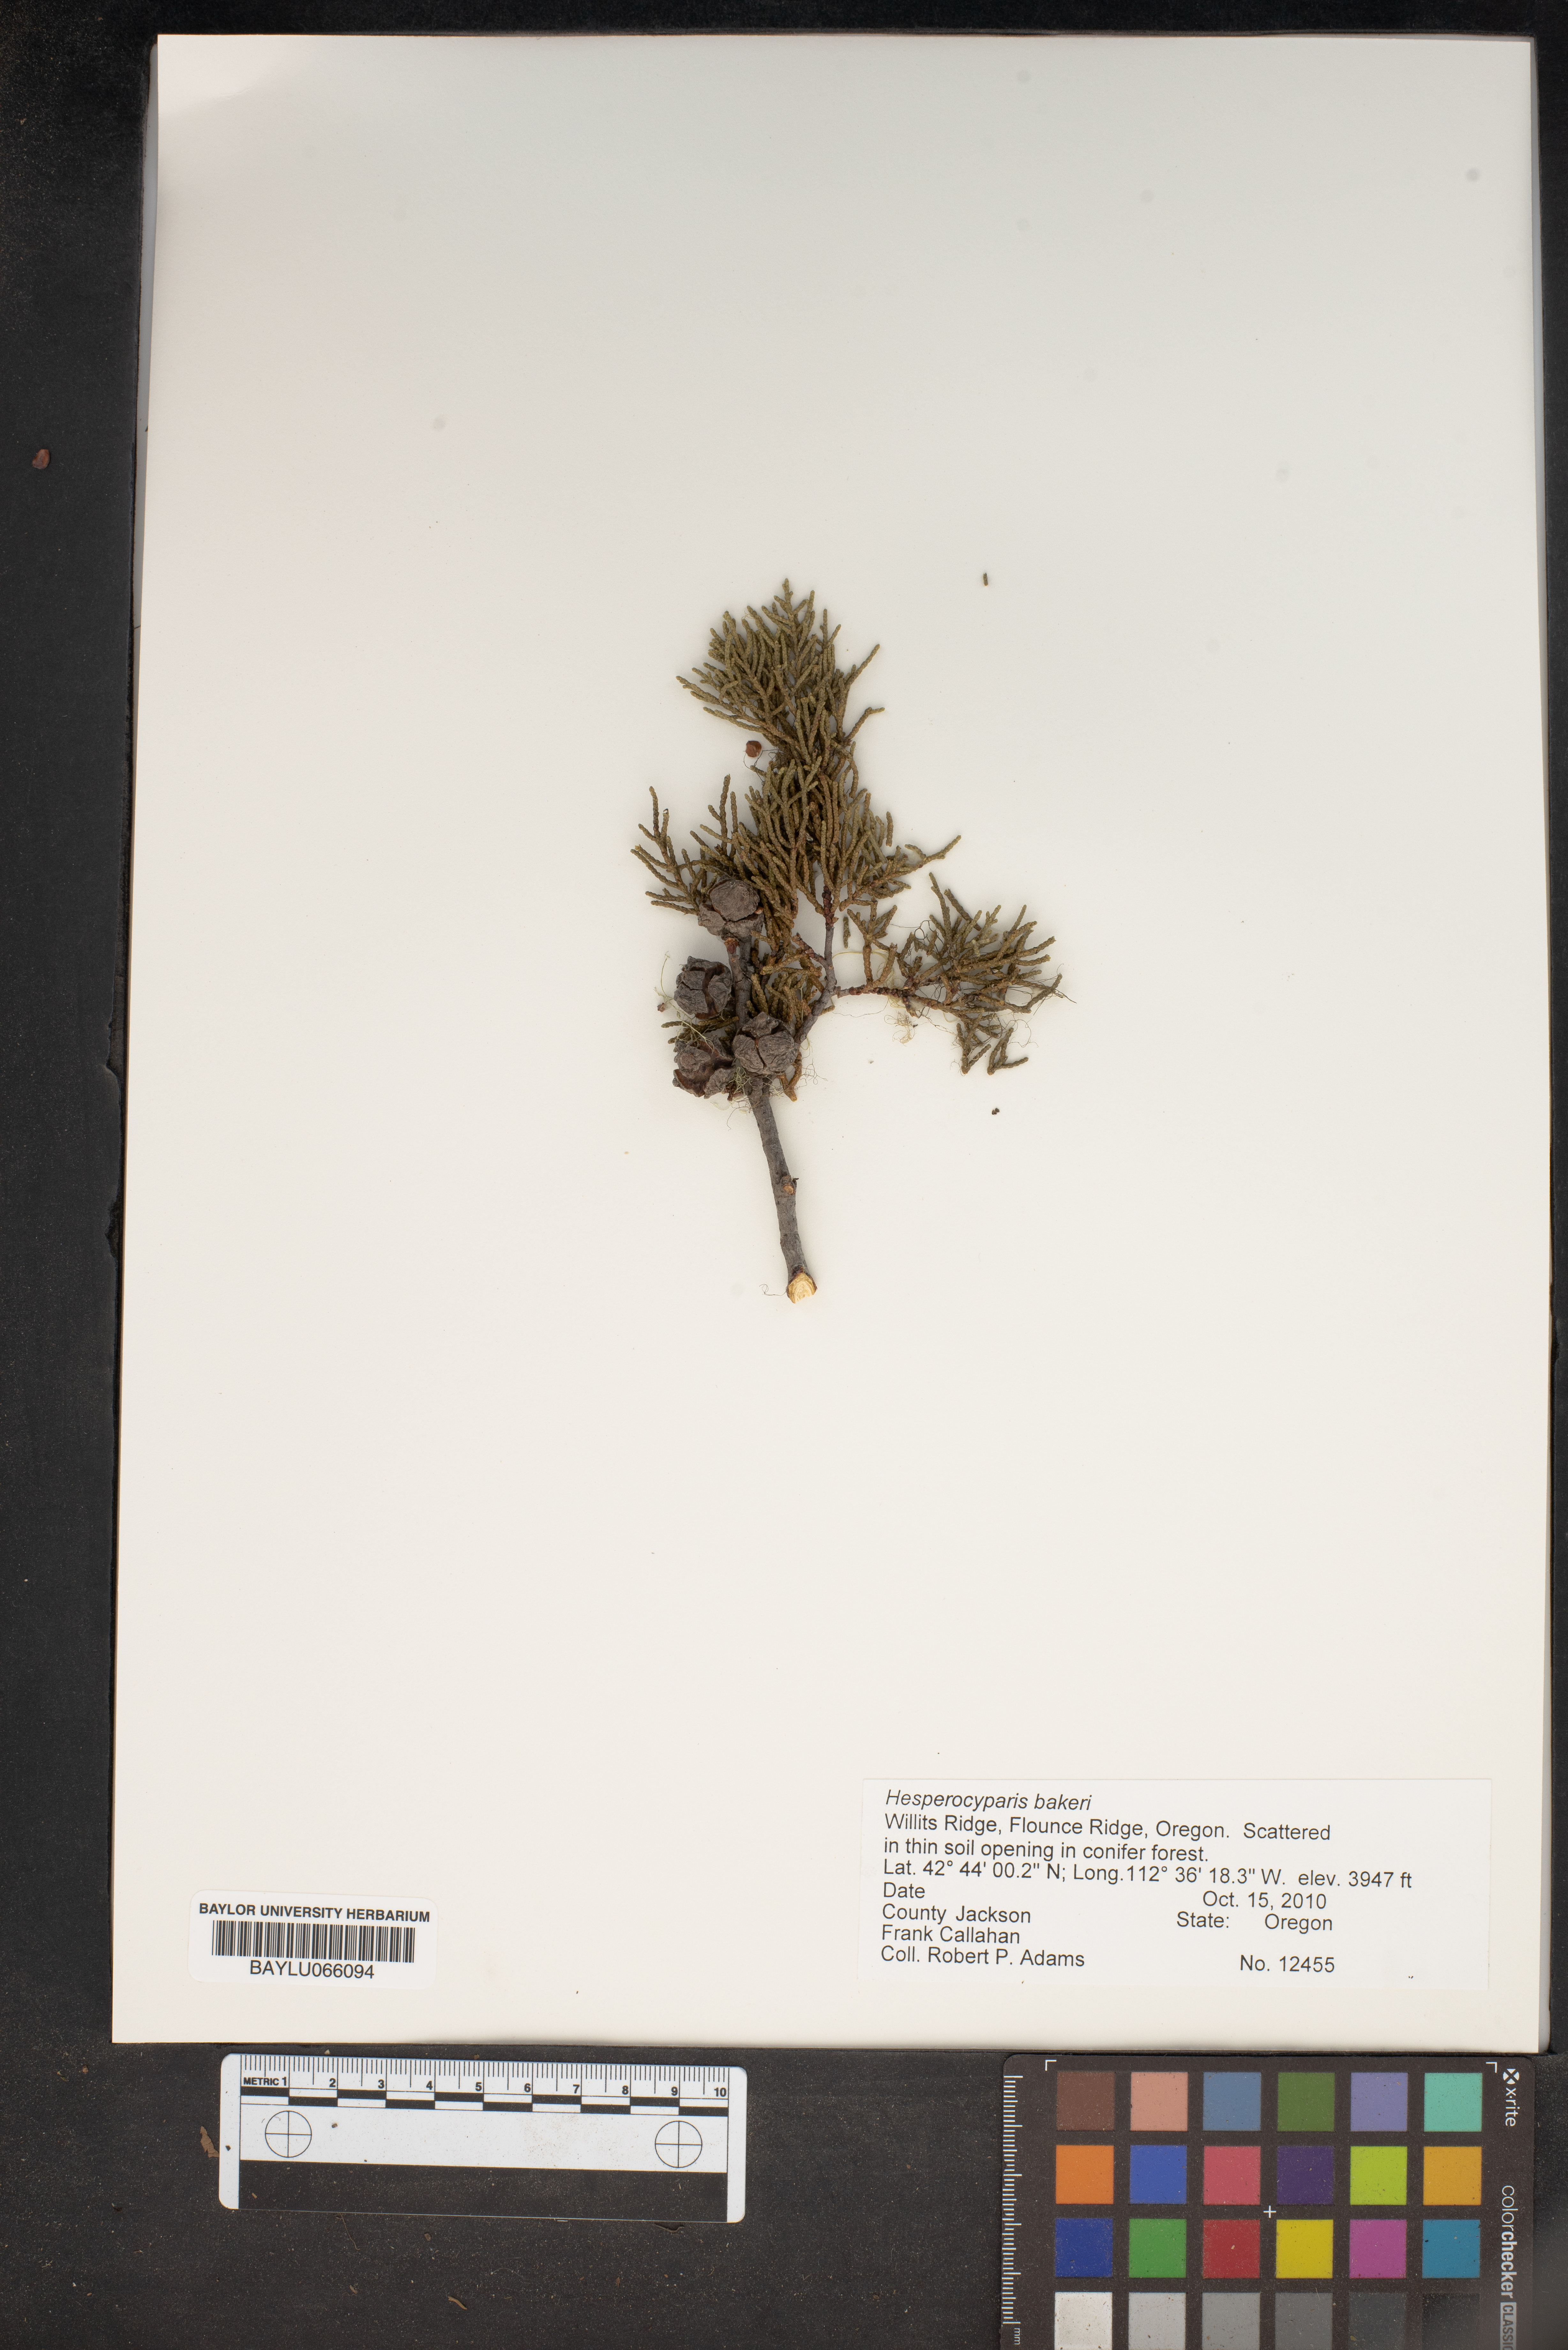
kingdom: Plantae
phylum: Tracheophyta
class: Pinopsida
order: Pinales
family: Cupressaceae
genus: Cupressus
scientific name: Cupressus bakeri
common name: Baker cypress
